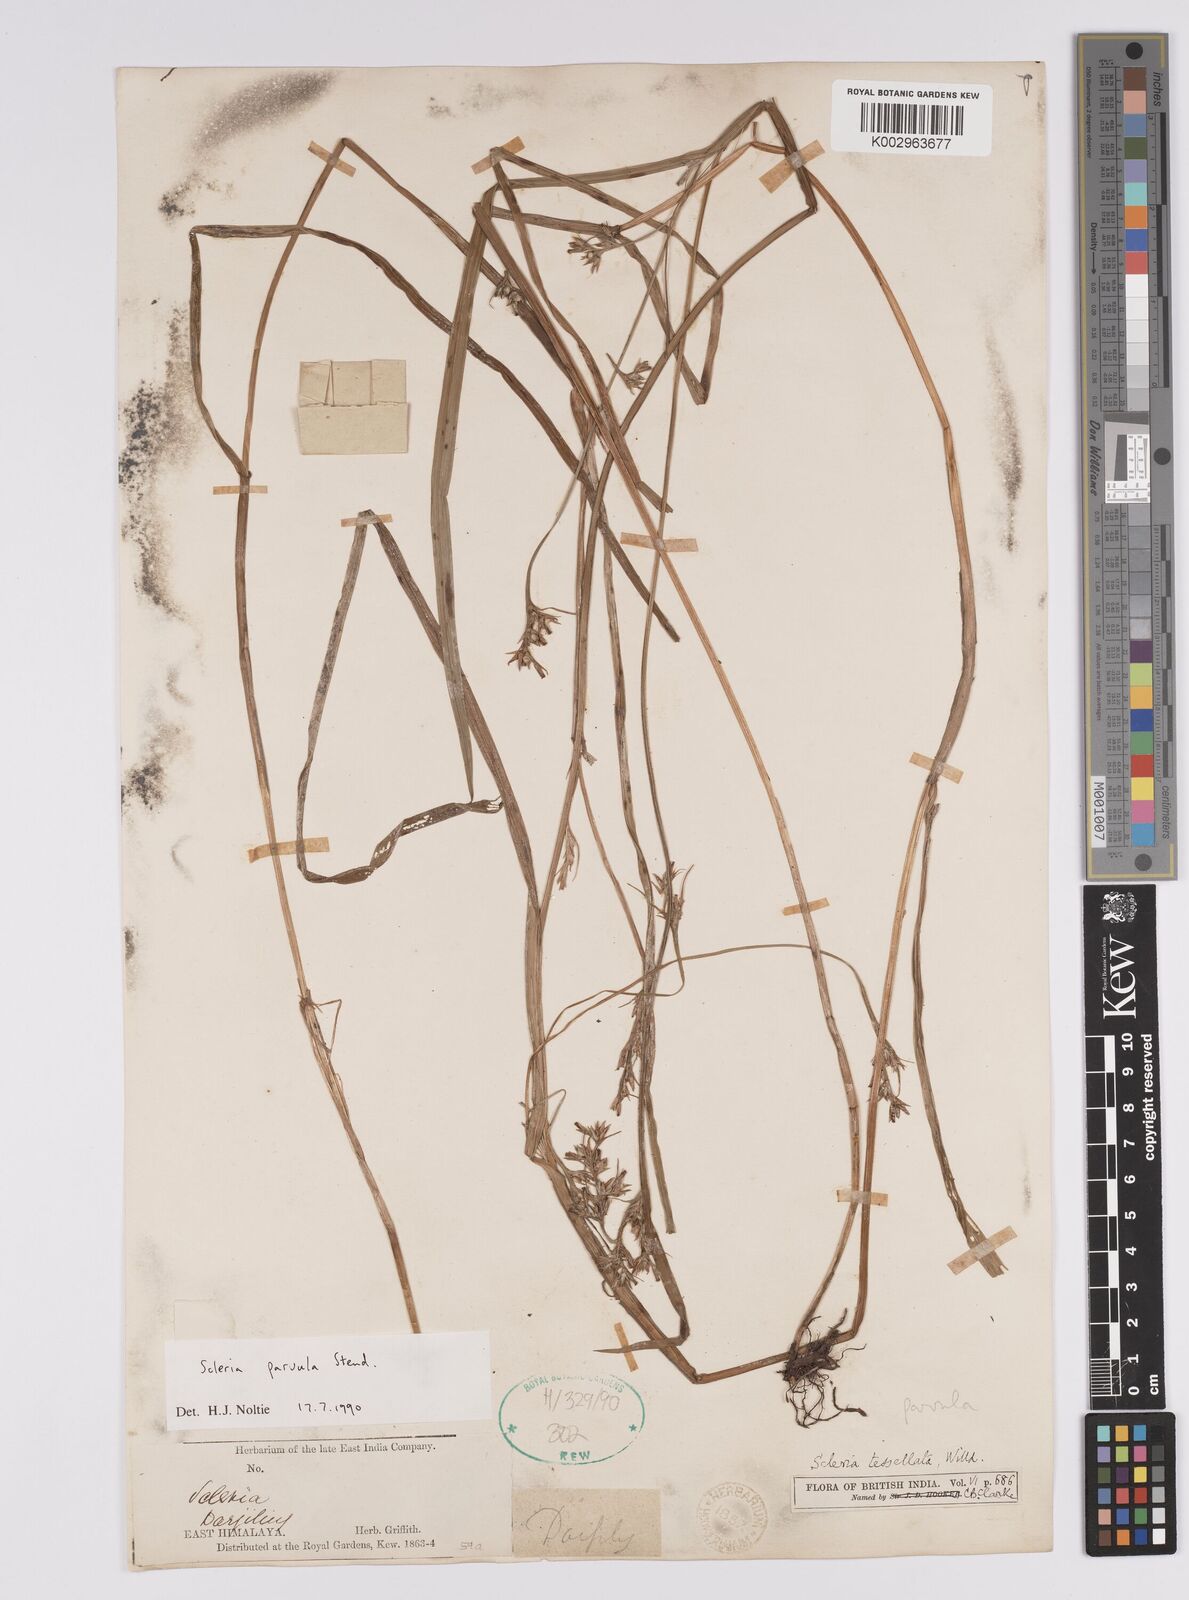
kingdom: Plantae
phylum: Tracheophyta
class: Liliopsida
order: Poales
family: Cyperaceae
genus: Scleria
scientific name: Scleria parvula
